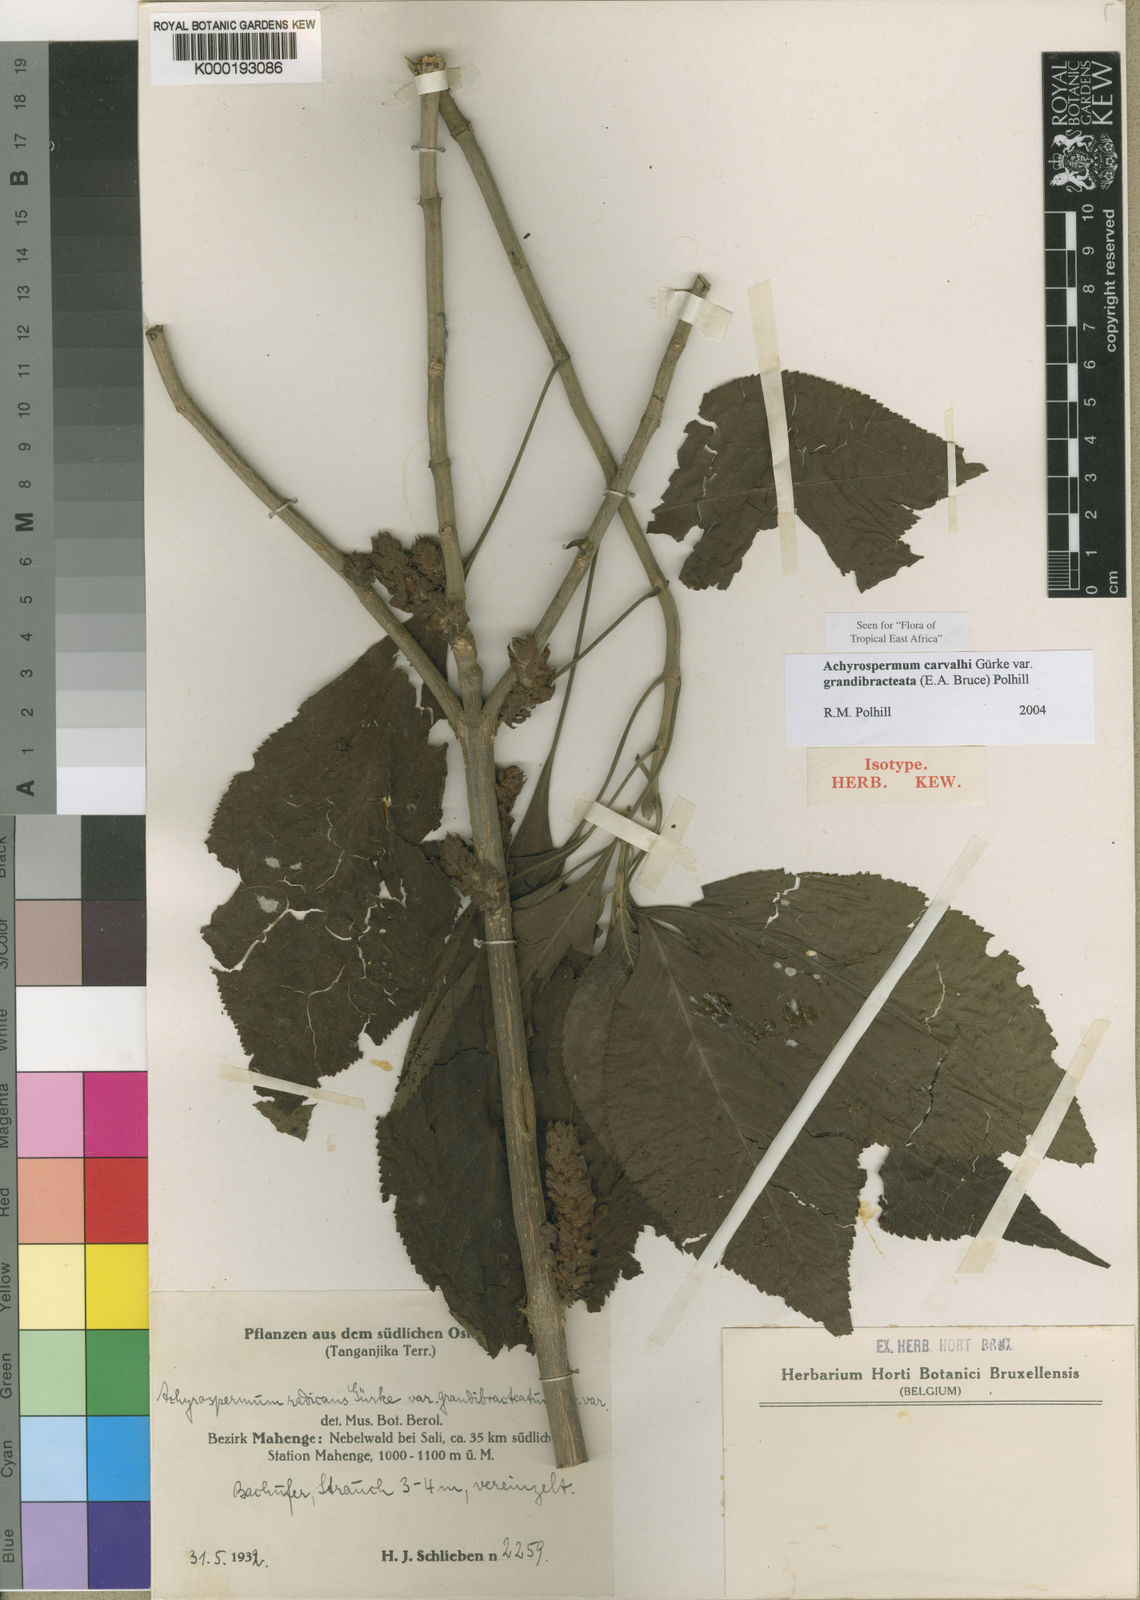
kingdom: Plantae
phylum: Tracheophyta
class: Magnoliopsida
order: Lamiales
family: Lamiaceae
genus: Achyrospermum
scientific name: Achyrospermum
